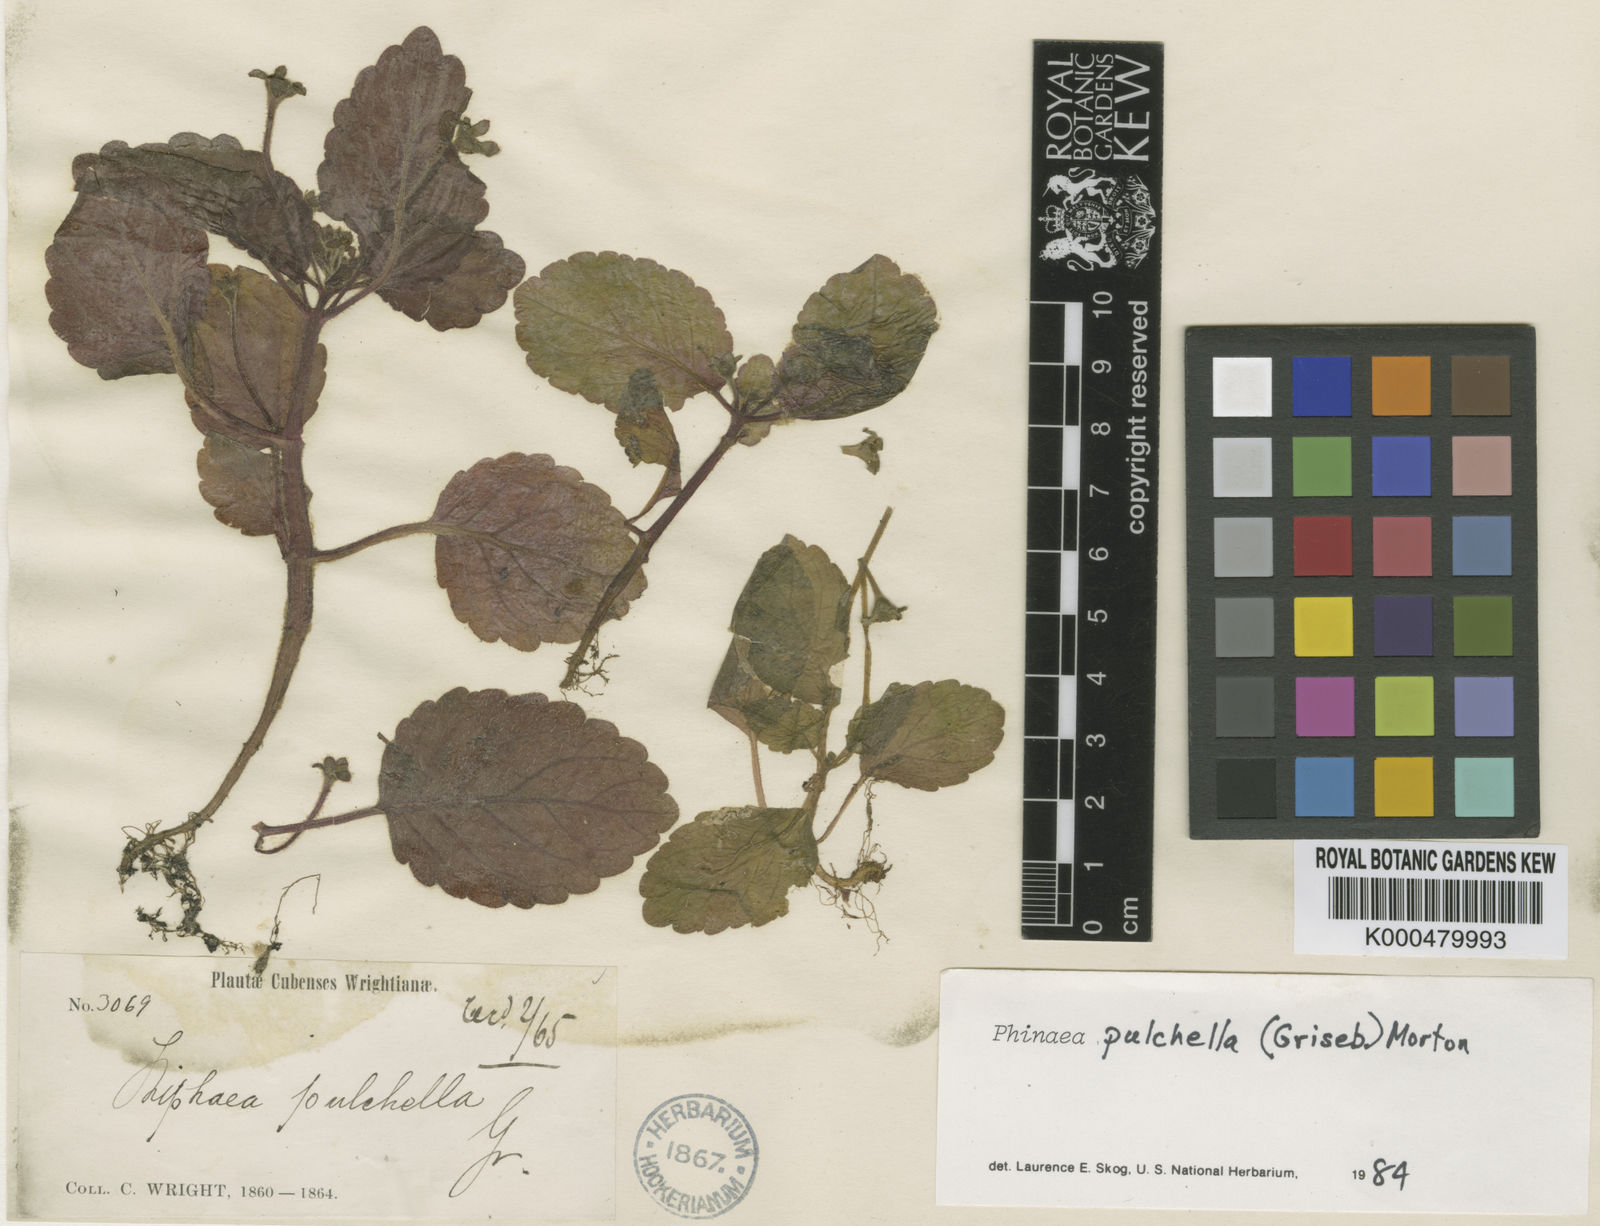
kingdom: Plantae
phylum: Tracheophyta
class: Magnoliopsida
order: Lamiales
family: Gesneriaceae
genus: Phinaea
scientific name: Phinaea pulchella
